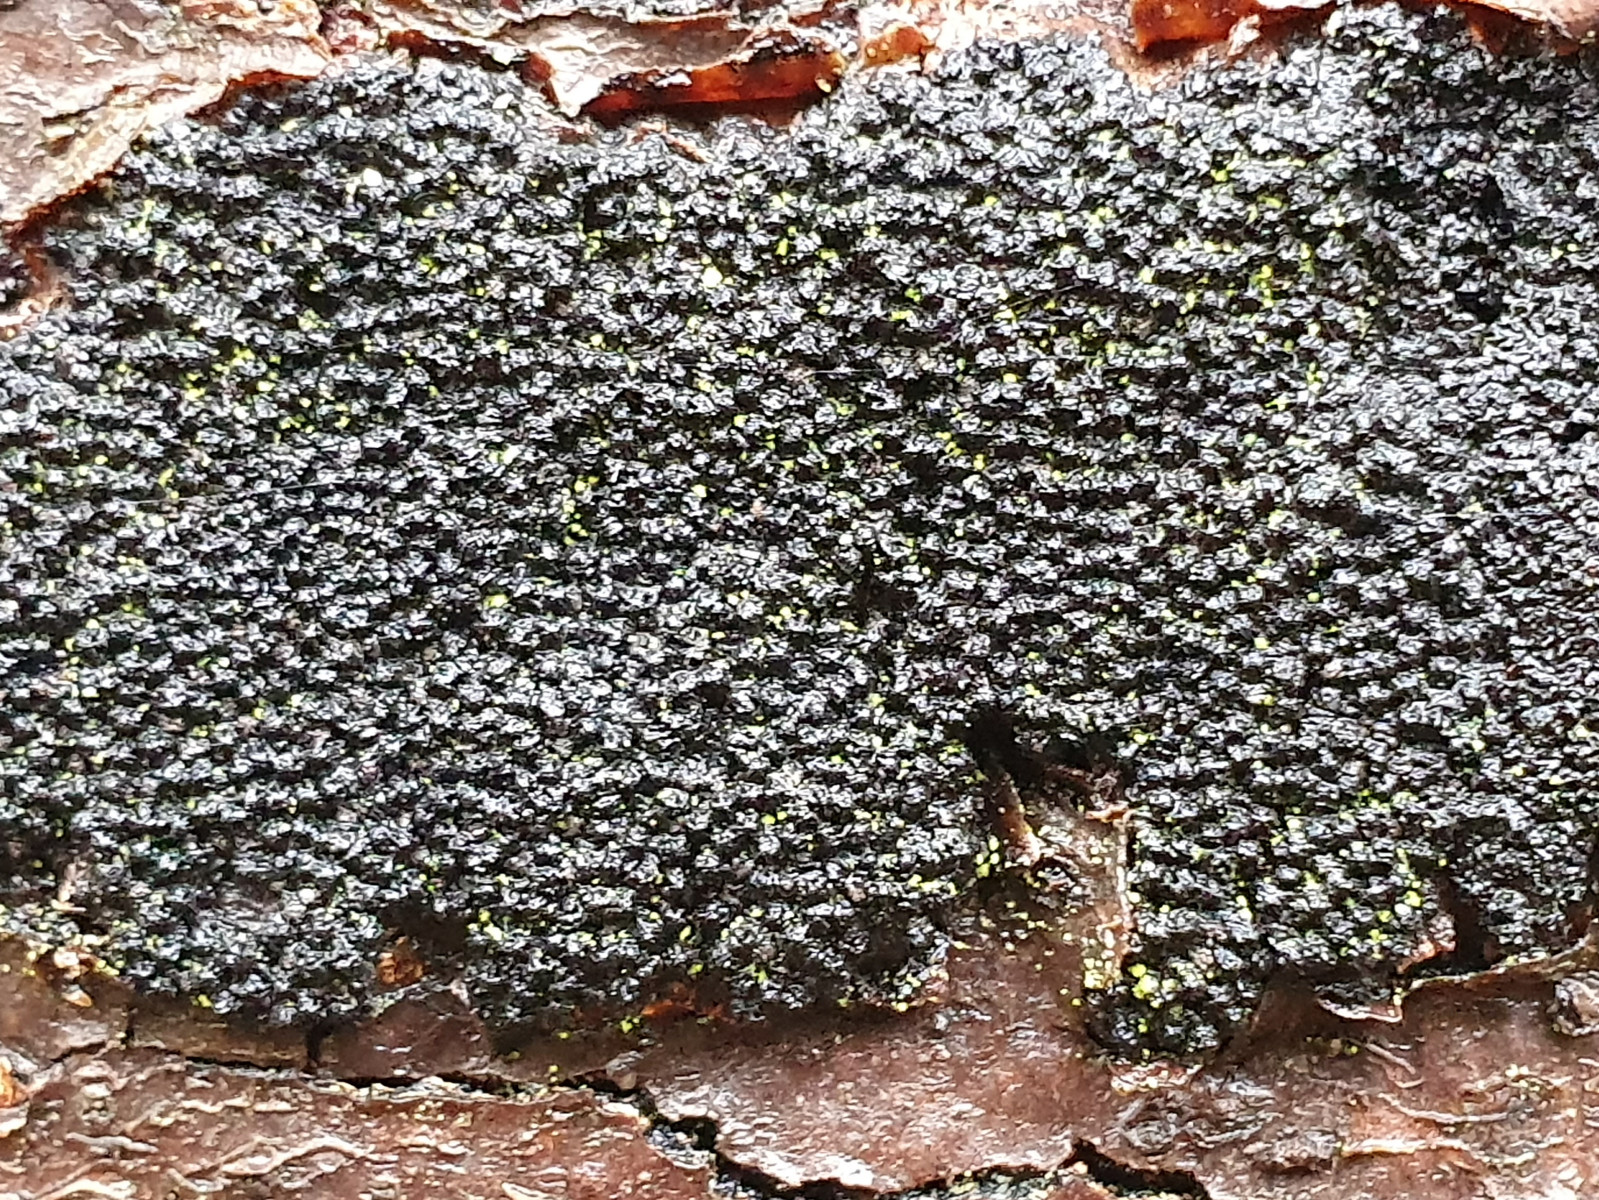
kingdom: Fungi
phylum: Ascomycota
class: Sordariomycetes
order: Xylariales
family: Diatrypaceae
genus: Eutypa
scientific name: Eutypa spinosa
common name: grov kulskorpe
